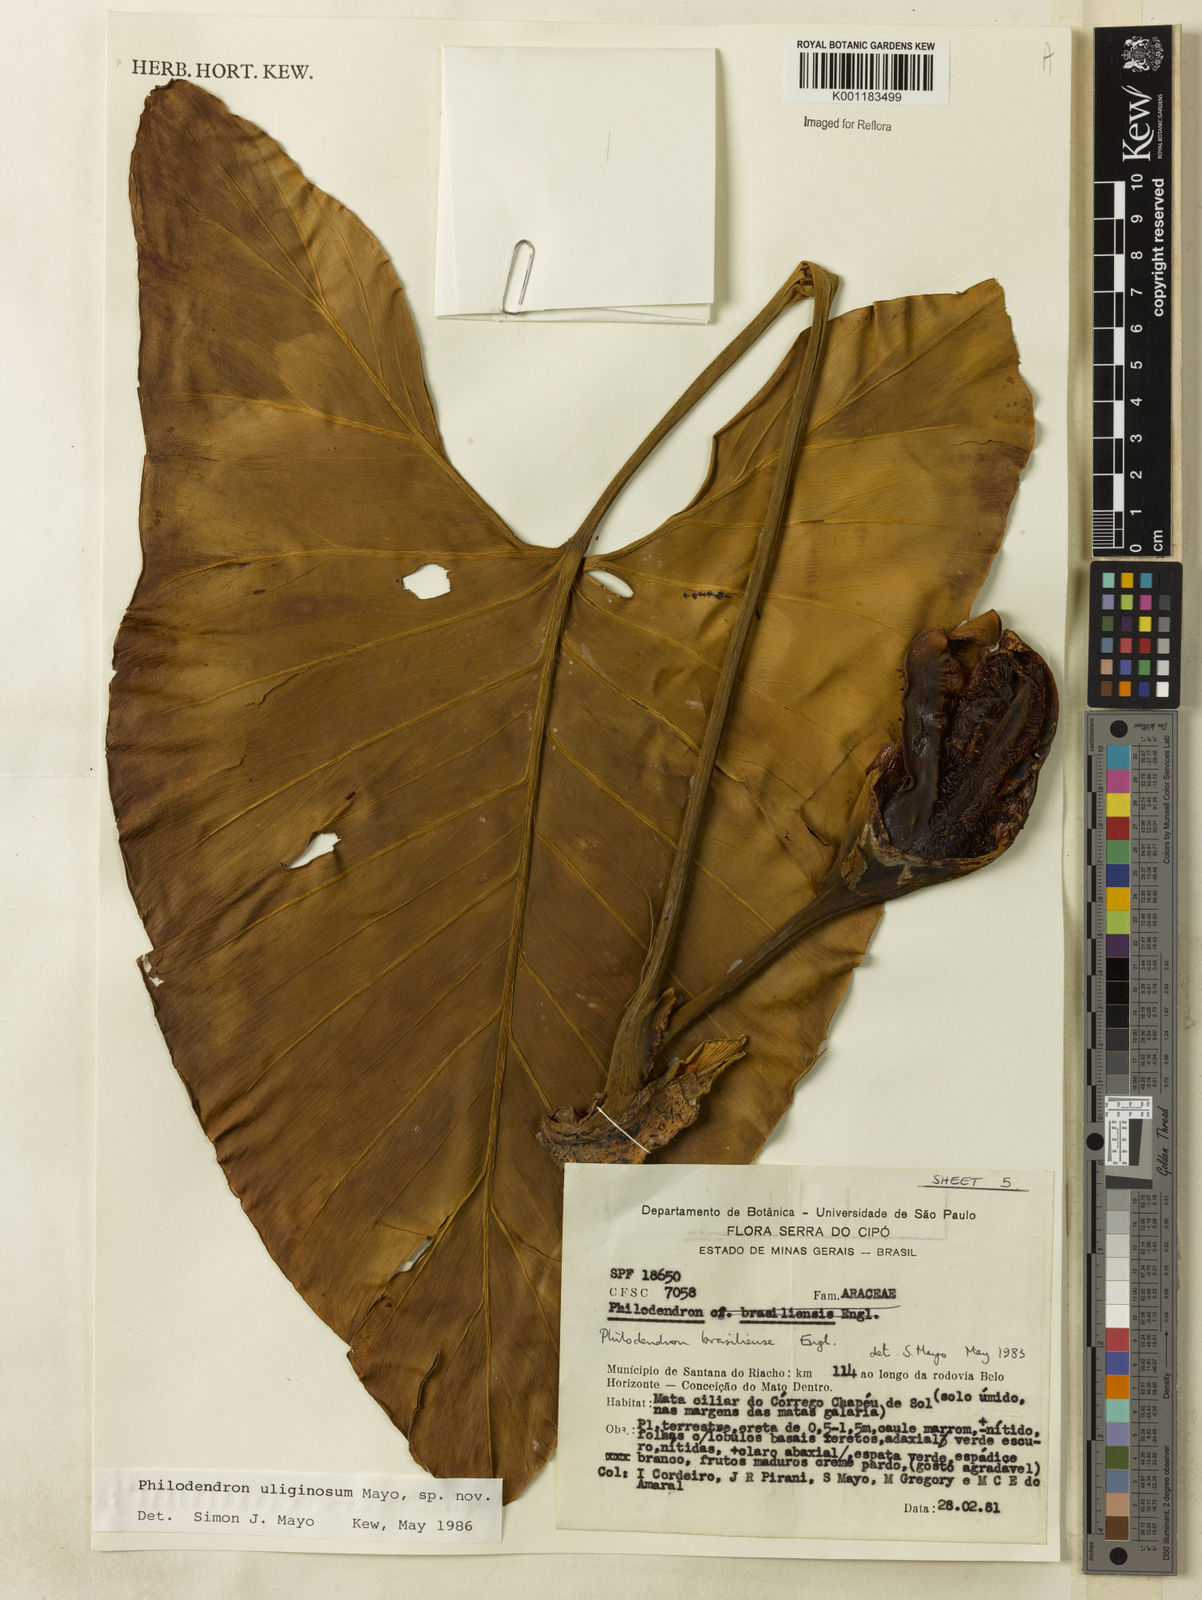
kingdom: Plantae
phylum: Tracheophyta
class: Liliopsida
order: Alismatales
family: Araceae
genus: Thaumatophyllum
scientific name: Thaumatophyllum uliginosum
